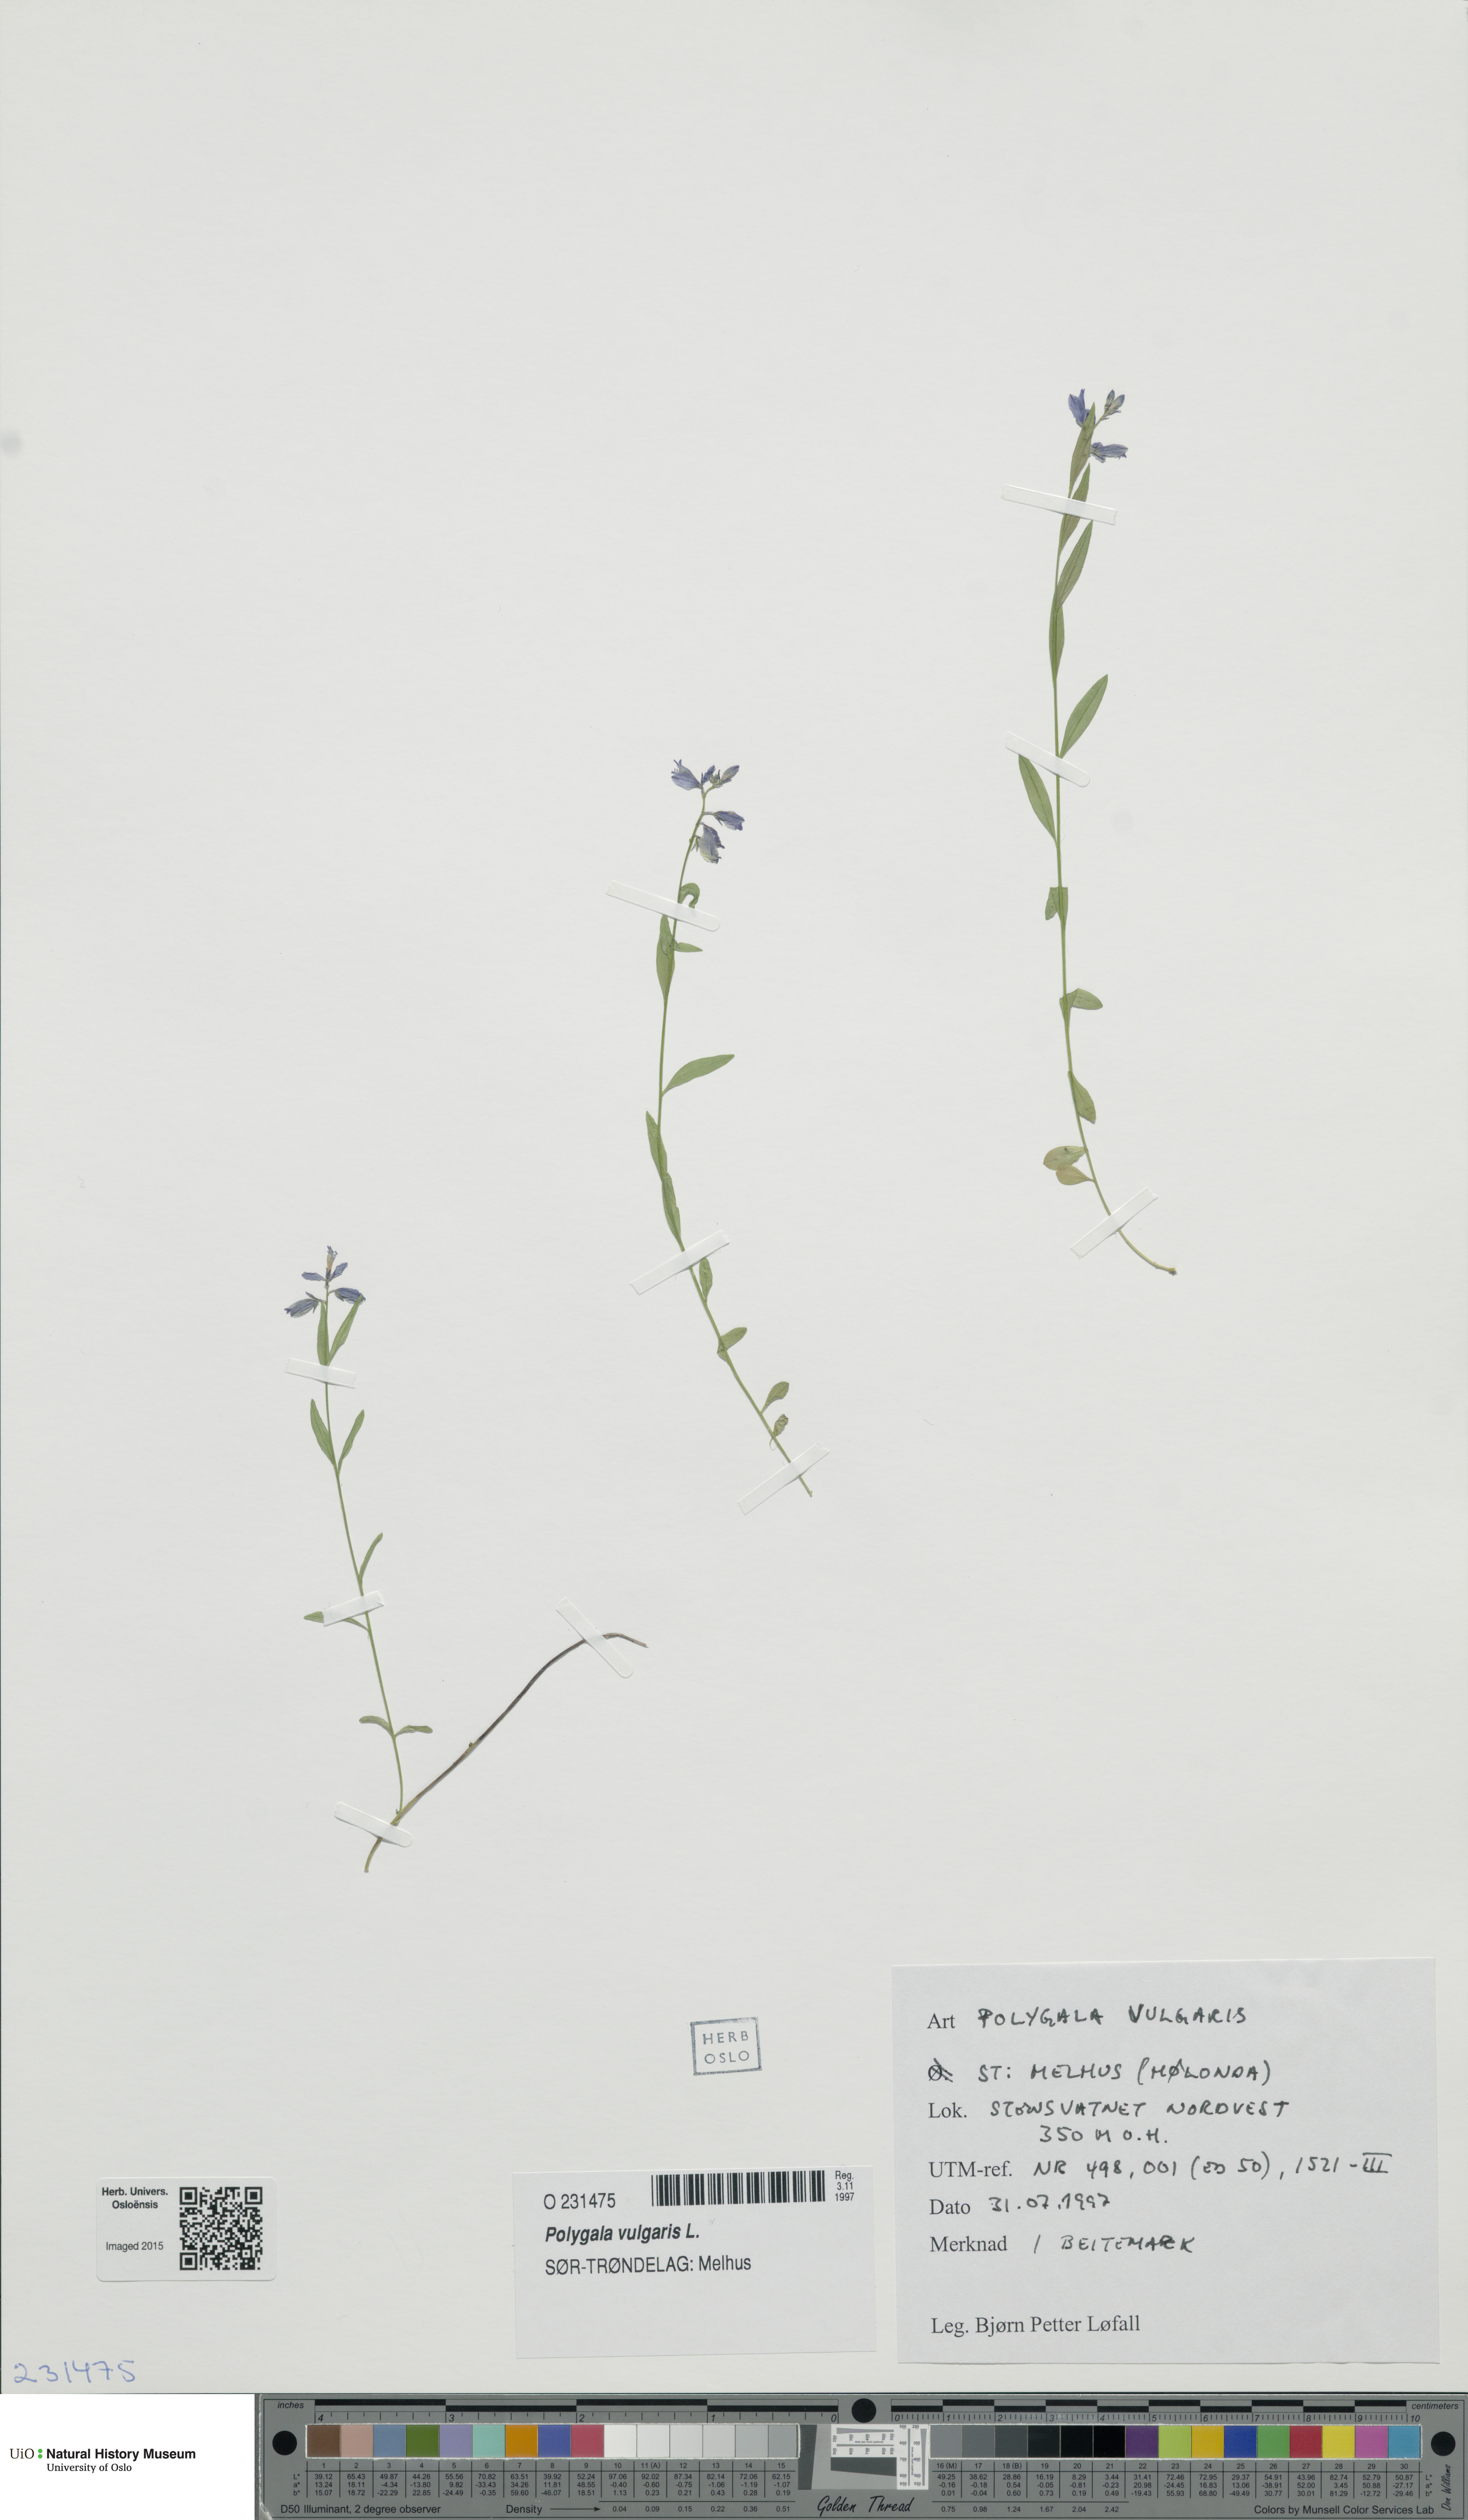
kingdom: Plantae
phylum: Tracheophyta
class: Magnoliopsida
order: Fabales
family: Polygalaceae
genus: Polygala
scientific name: Polygala vulgaris
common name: Common milkwort
